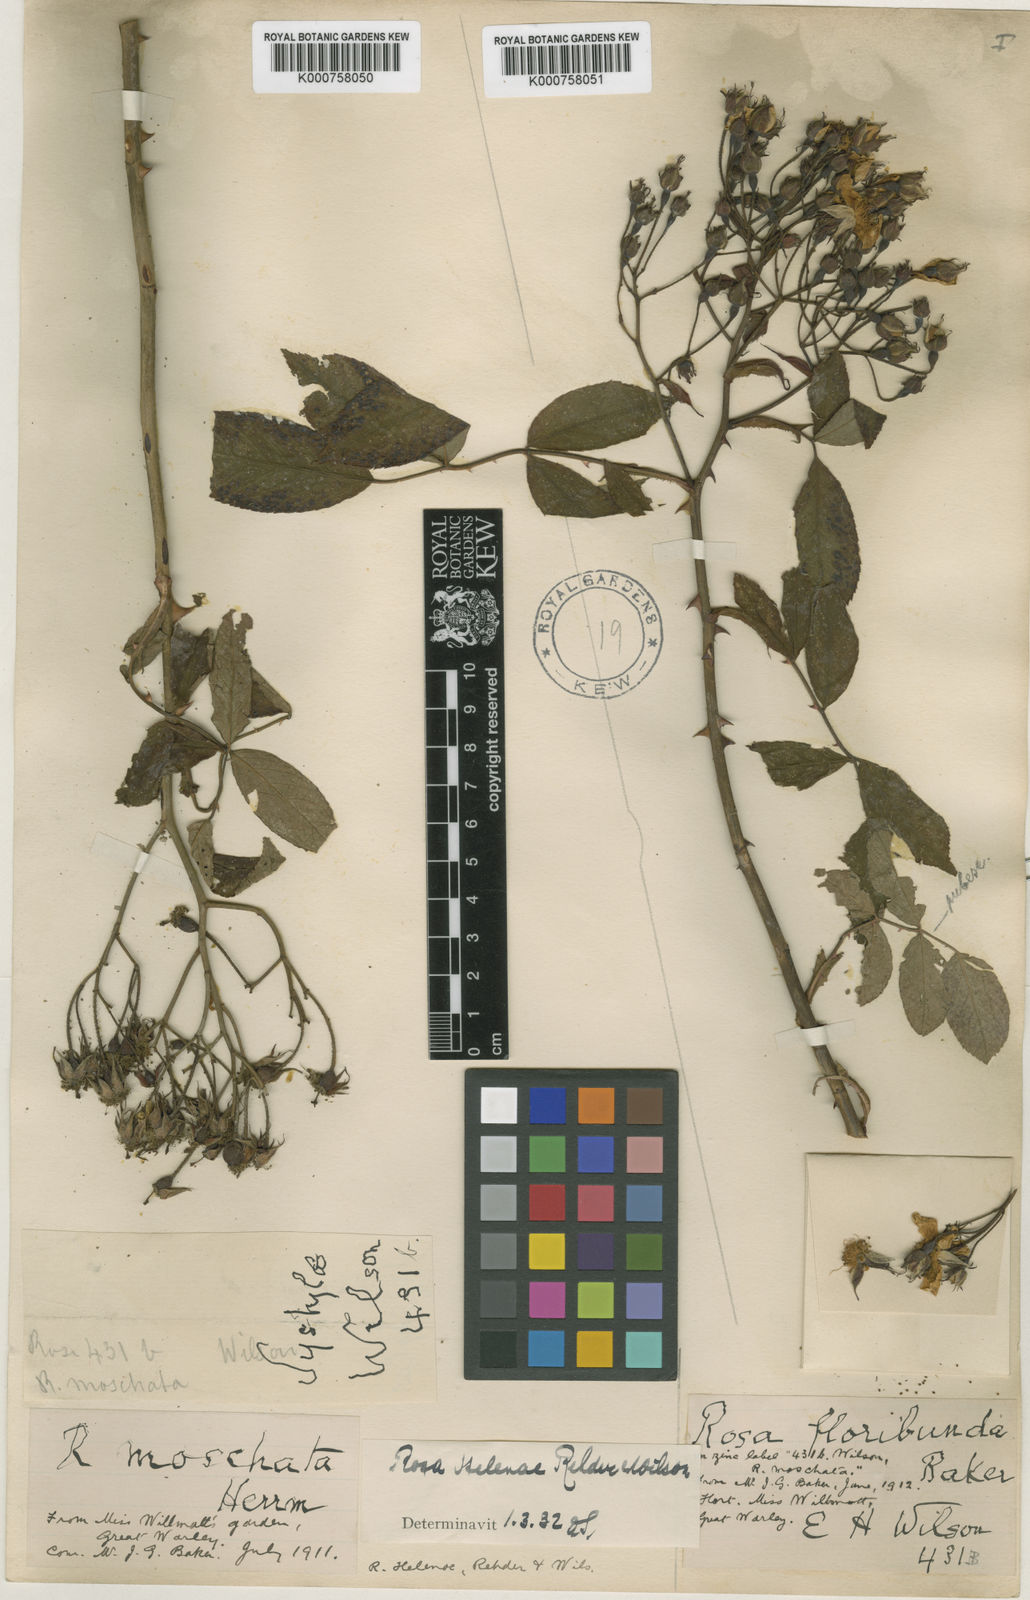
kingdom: Plantae
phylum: Tracheophyta
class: Magnoliopsida
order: Rosales
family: Rosaceae
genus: Rosa
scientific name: Rosa helenae
